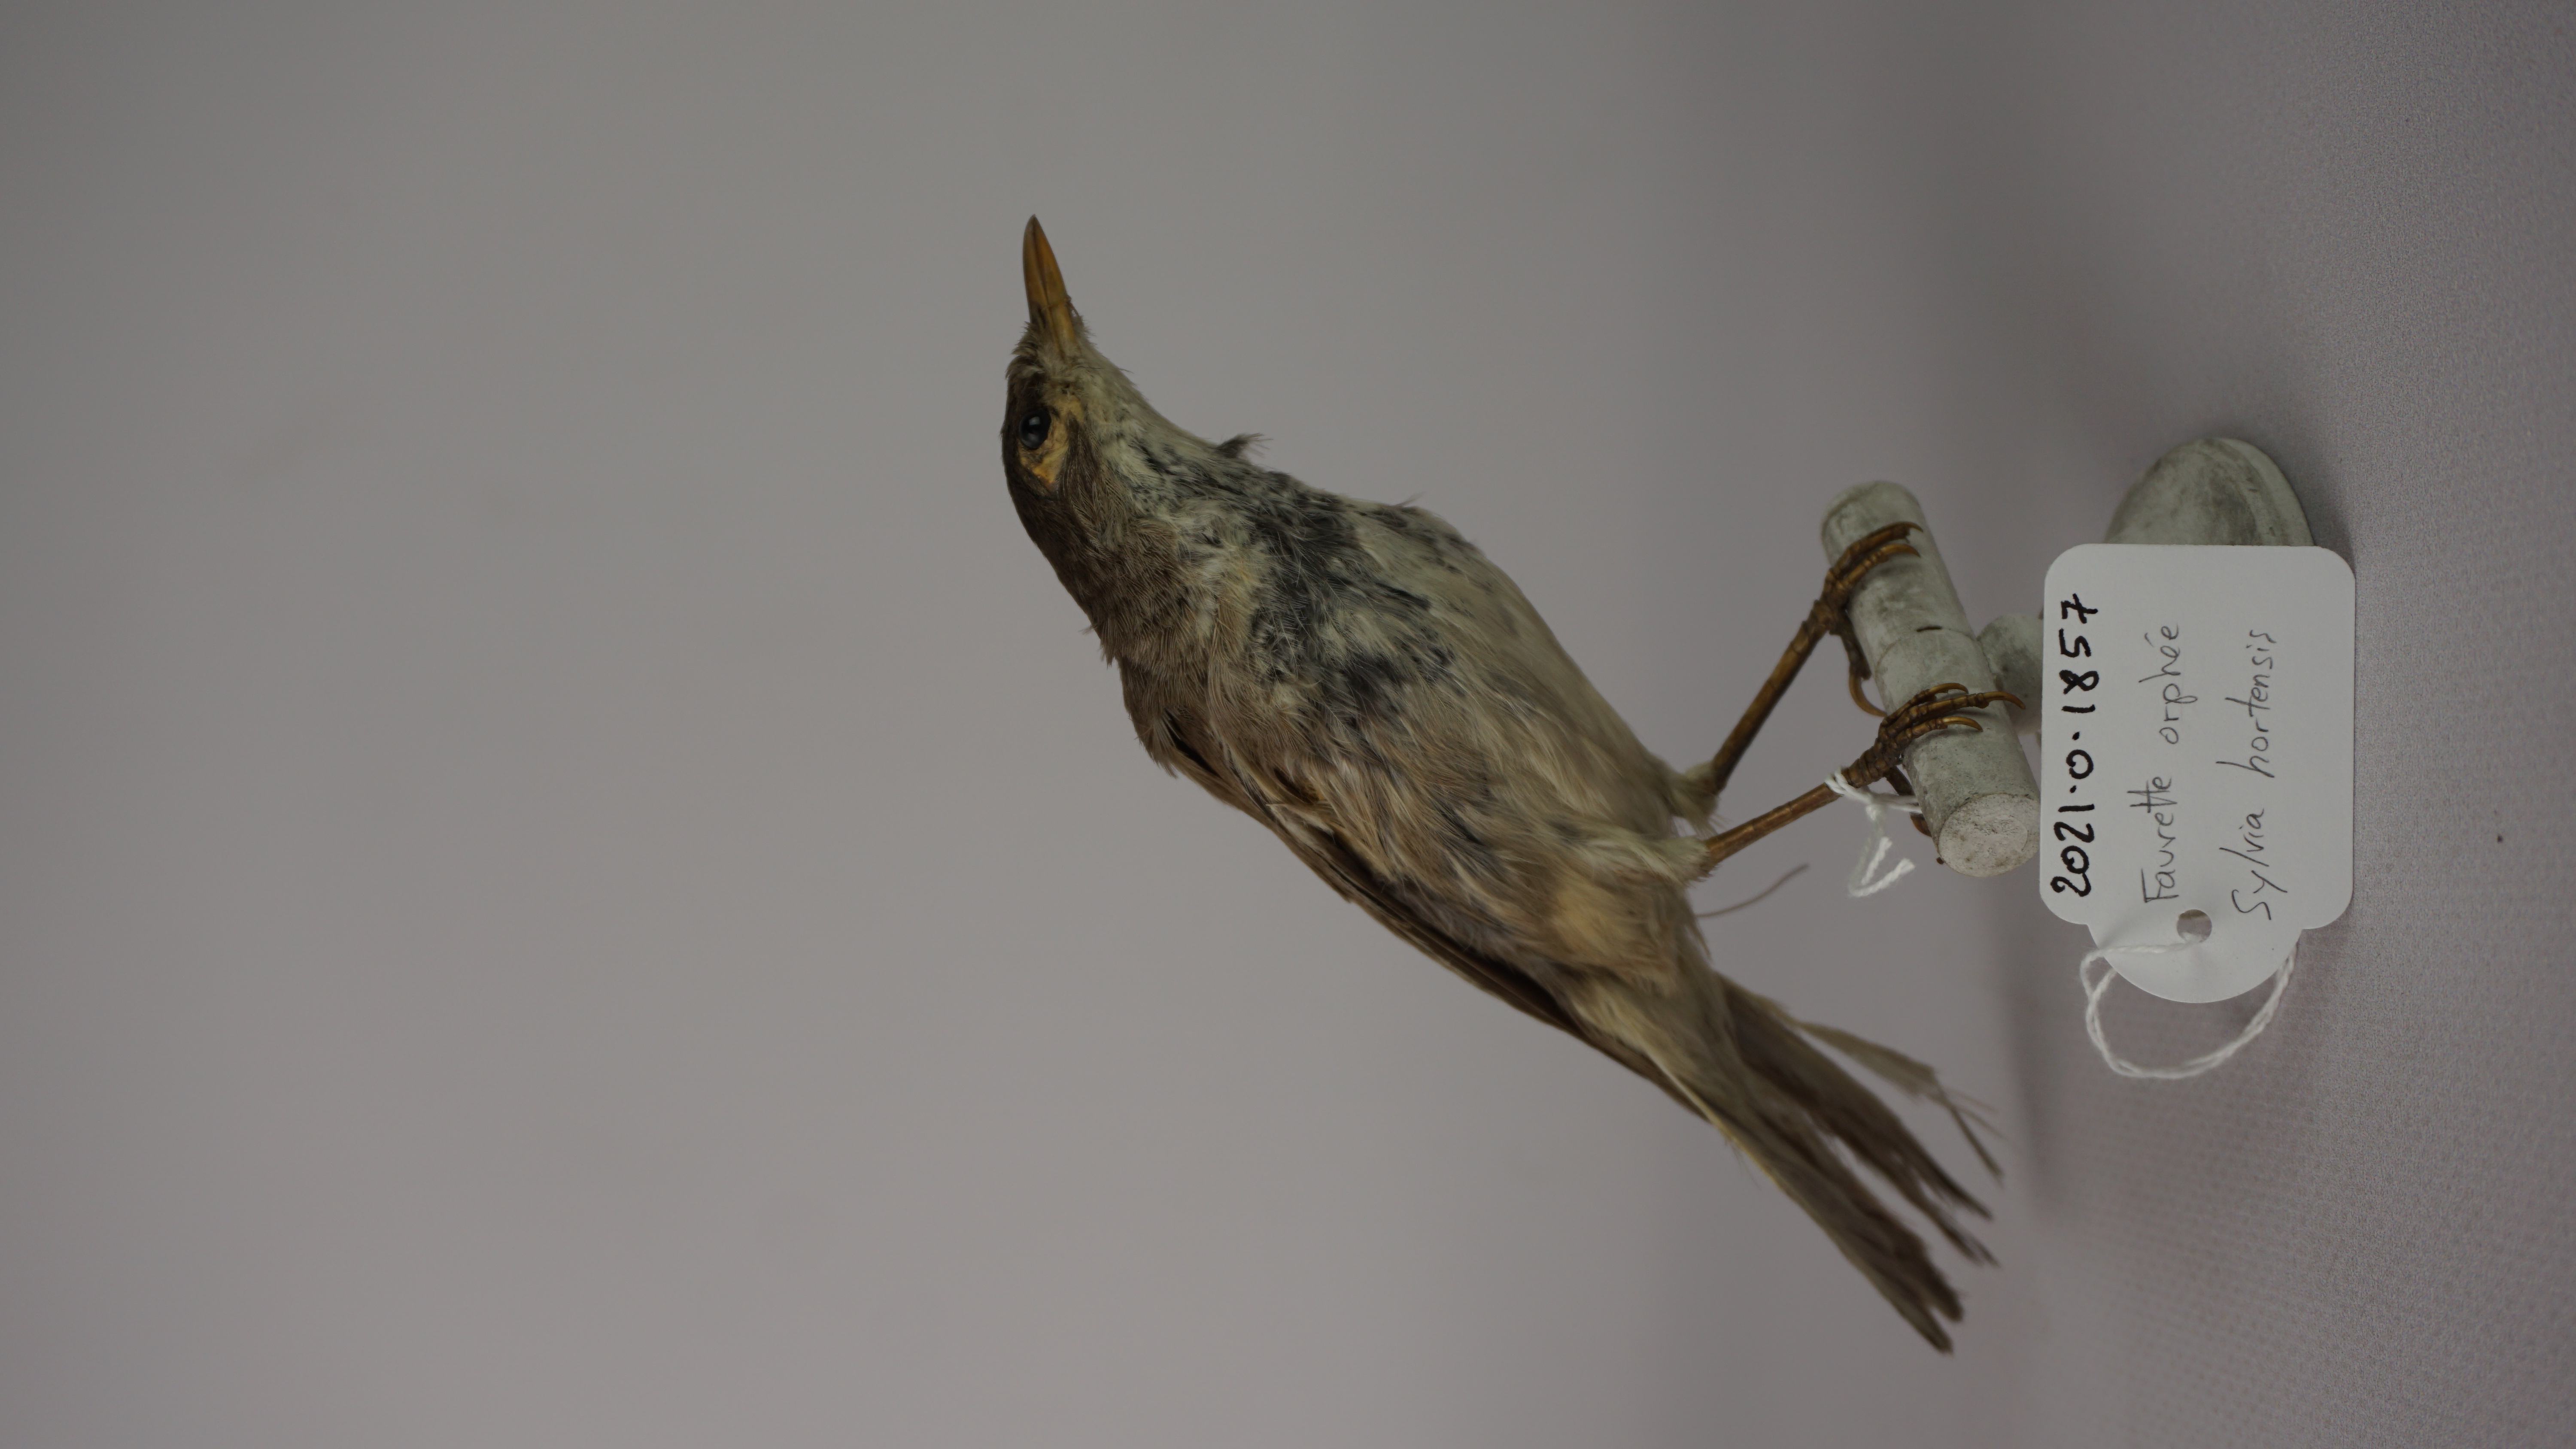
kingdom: Animalia
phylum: Chordata
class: Aves
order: Passeriformes
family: Sylviidae
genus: Sylvia
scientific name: Sylvia hortensis
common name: Orphean warbler
